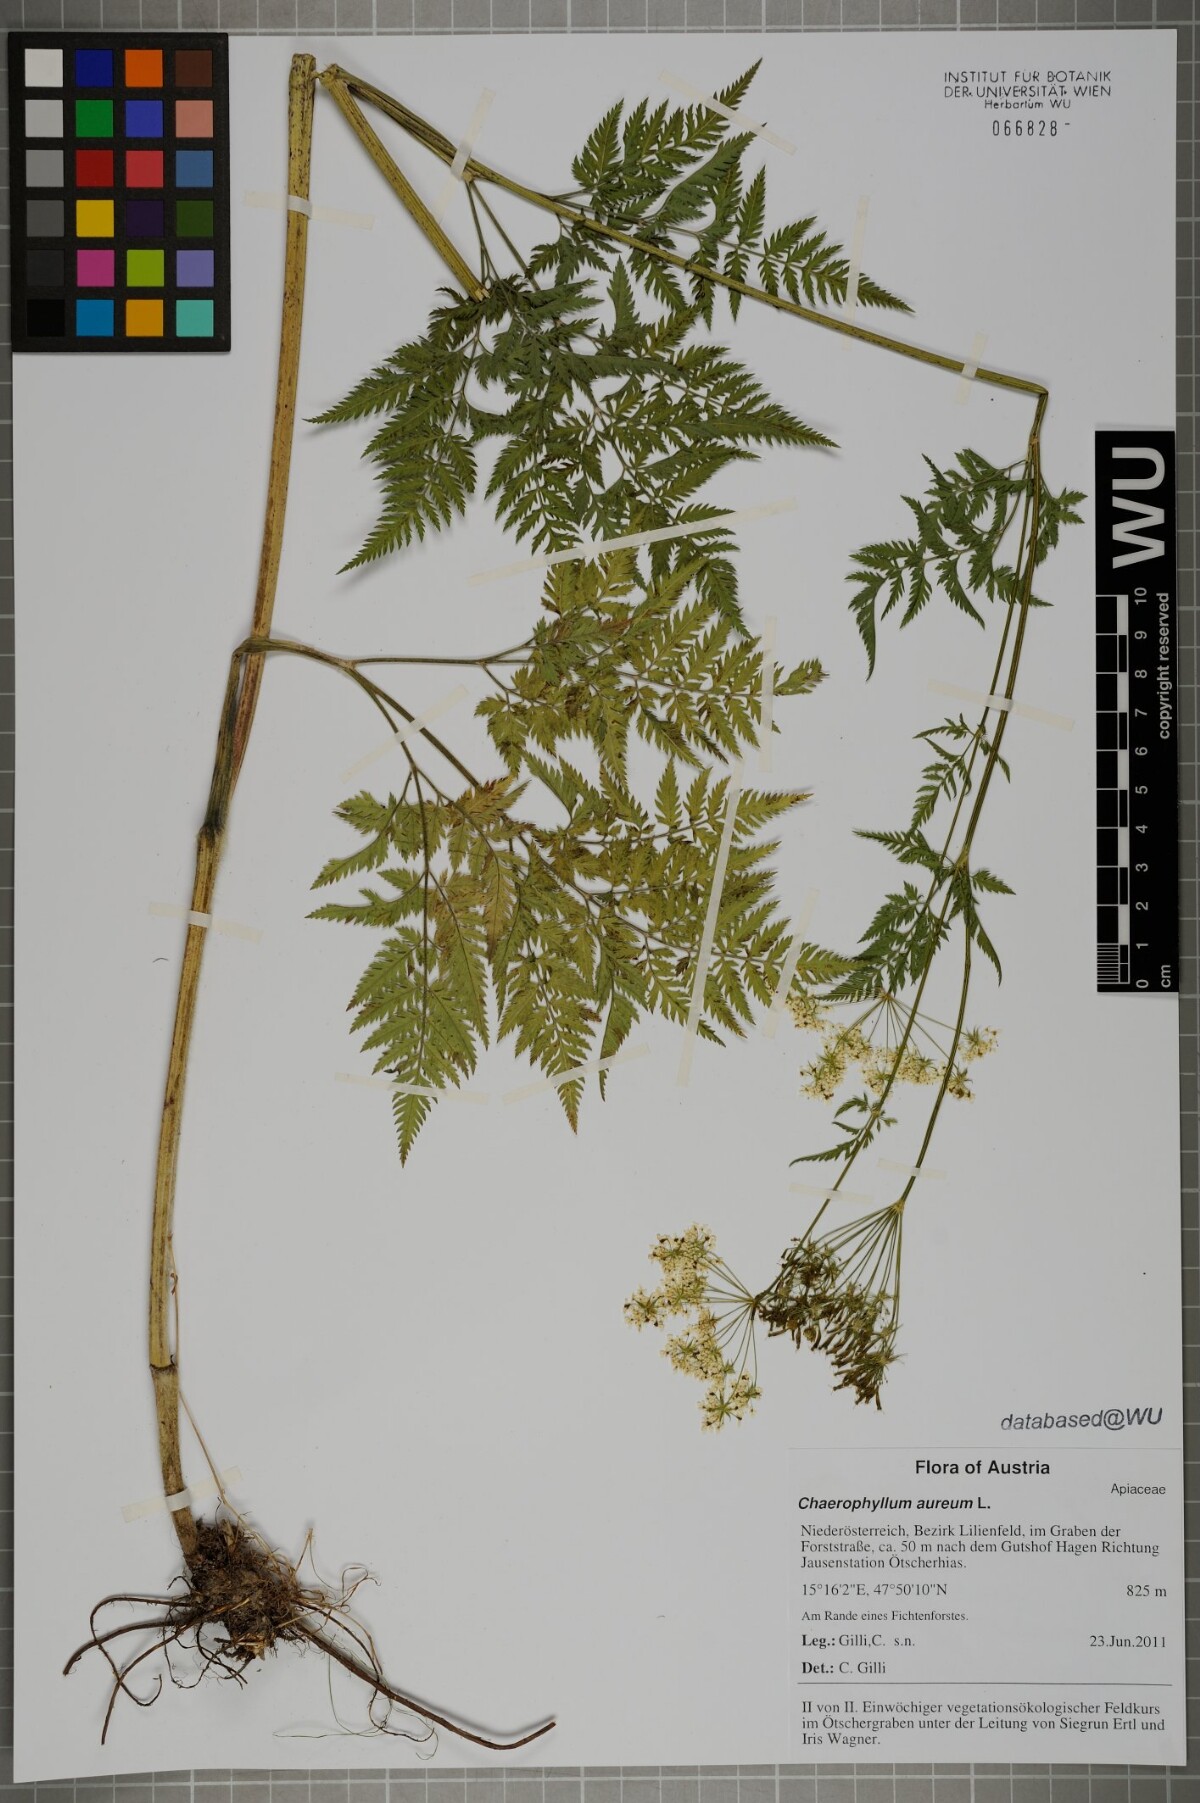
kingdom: Plantae
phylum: Tracheophyta
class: Magnoliopsida
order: Apiales
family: Apiaceae
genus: Chaerophyllum
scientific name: Chaerophyllum aureum
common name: Golden chervil
